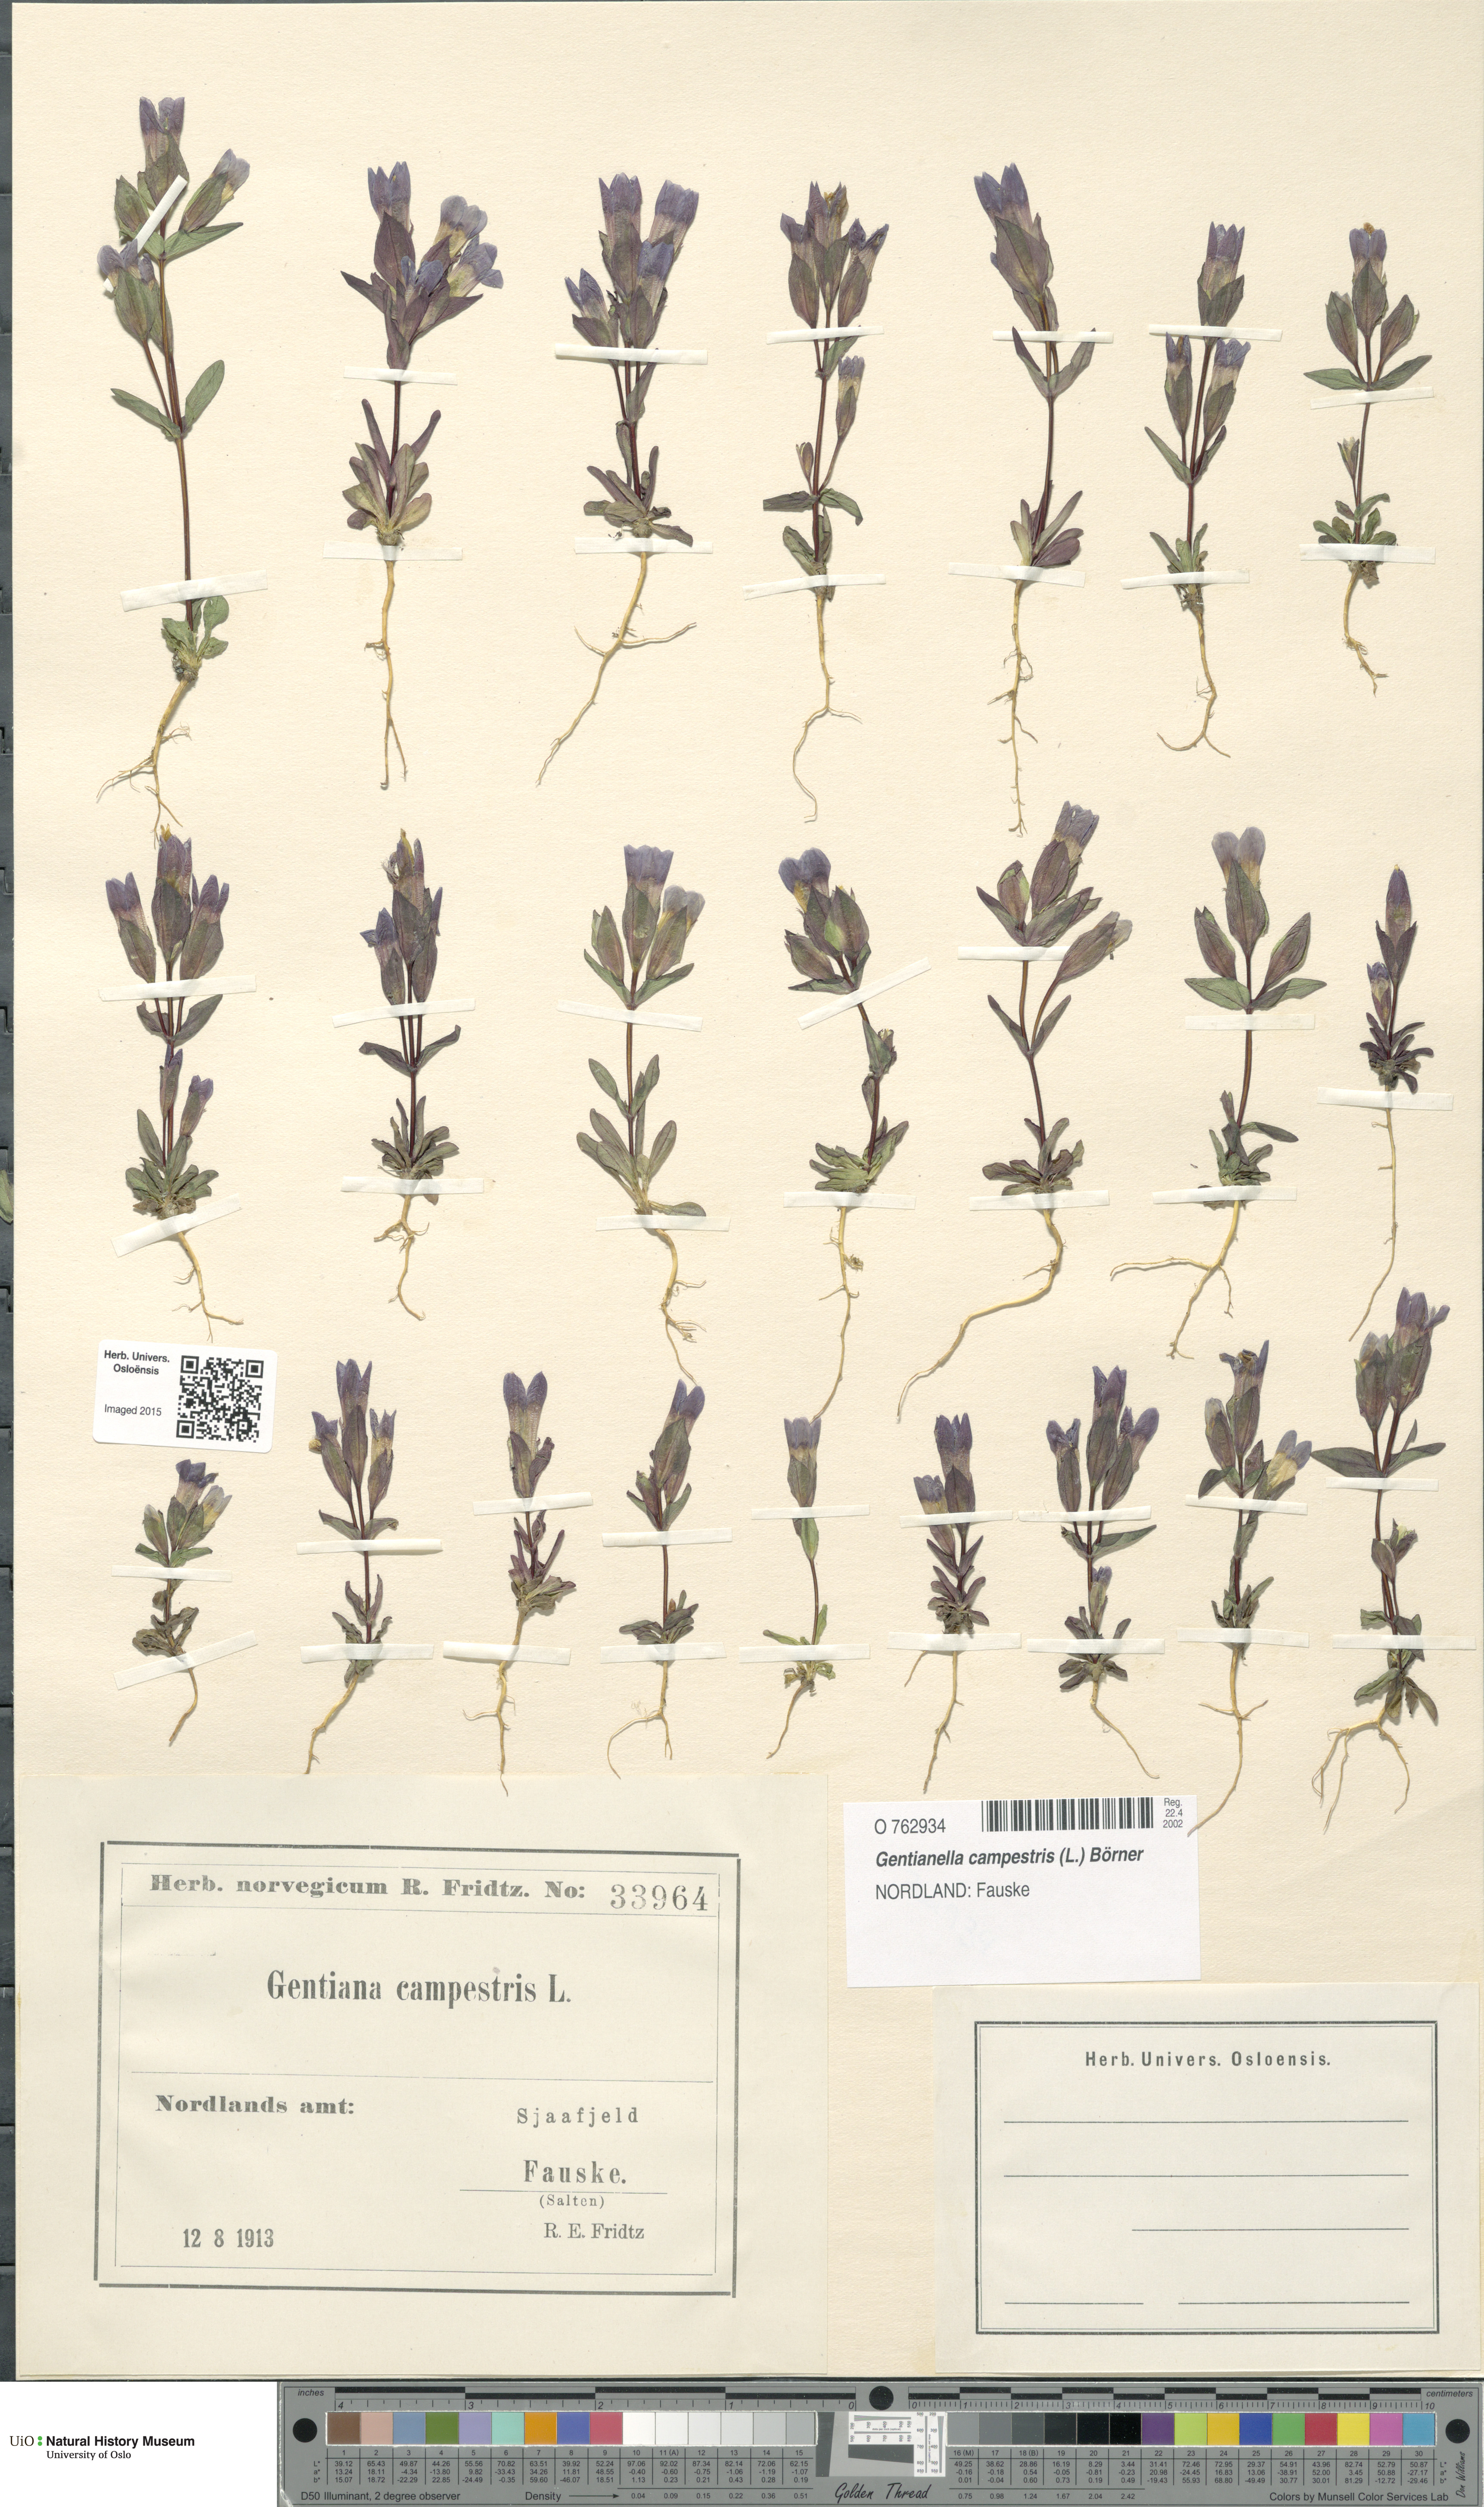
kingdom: Plantae
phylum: Tracheophyta
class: Magnoliopsida
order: Gentianales
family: Gentianaceae
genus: Gentianella
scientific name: Gentianella campestris
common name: Field gentian
